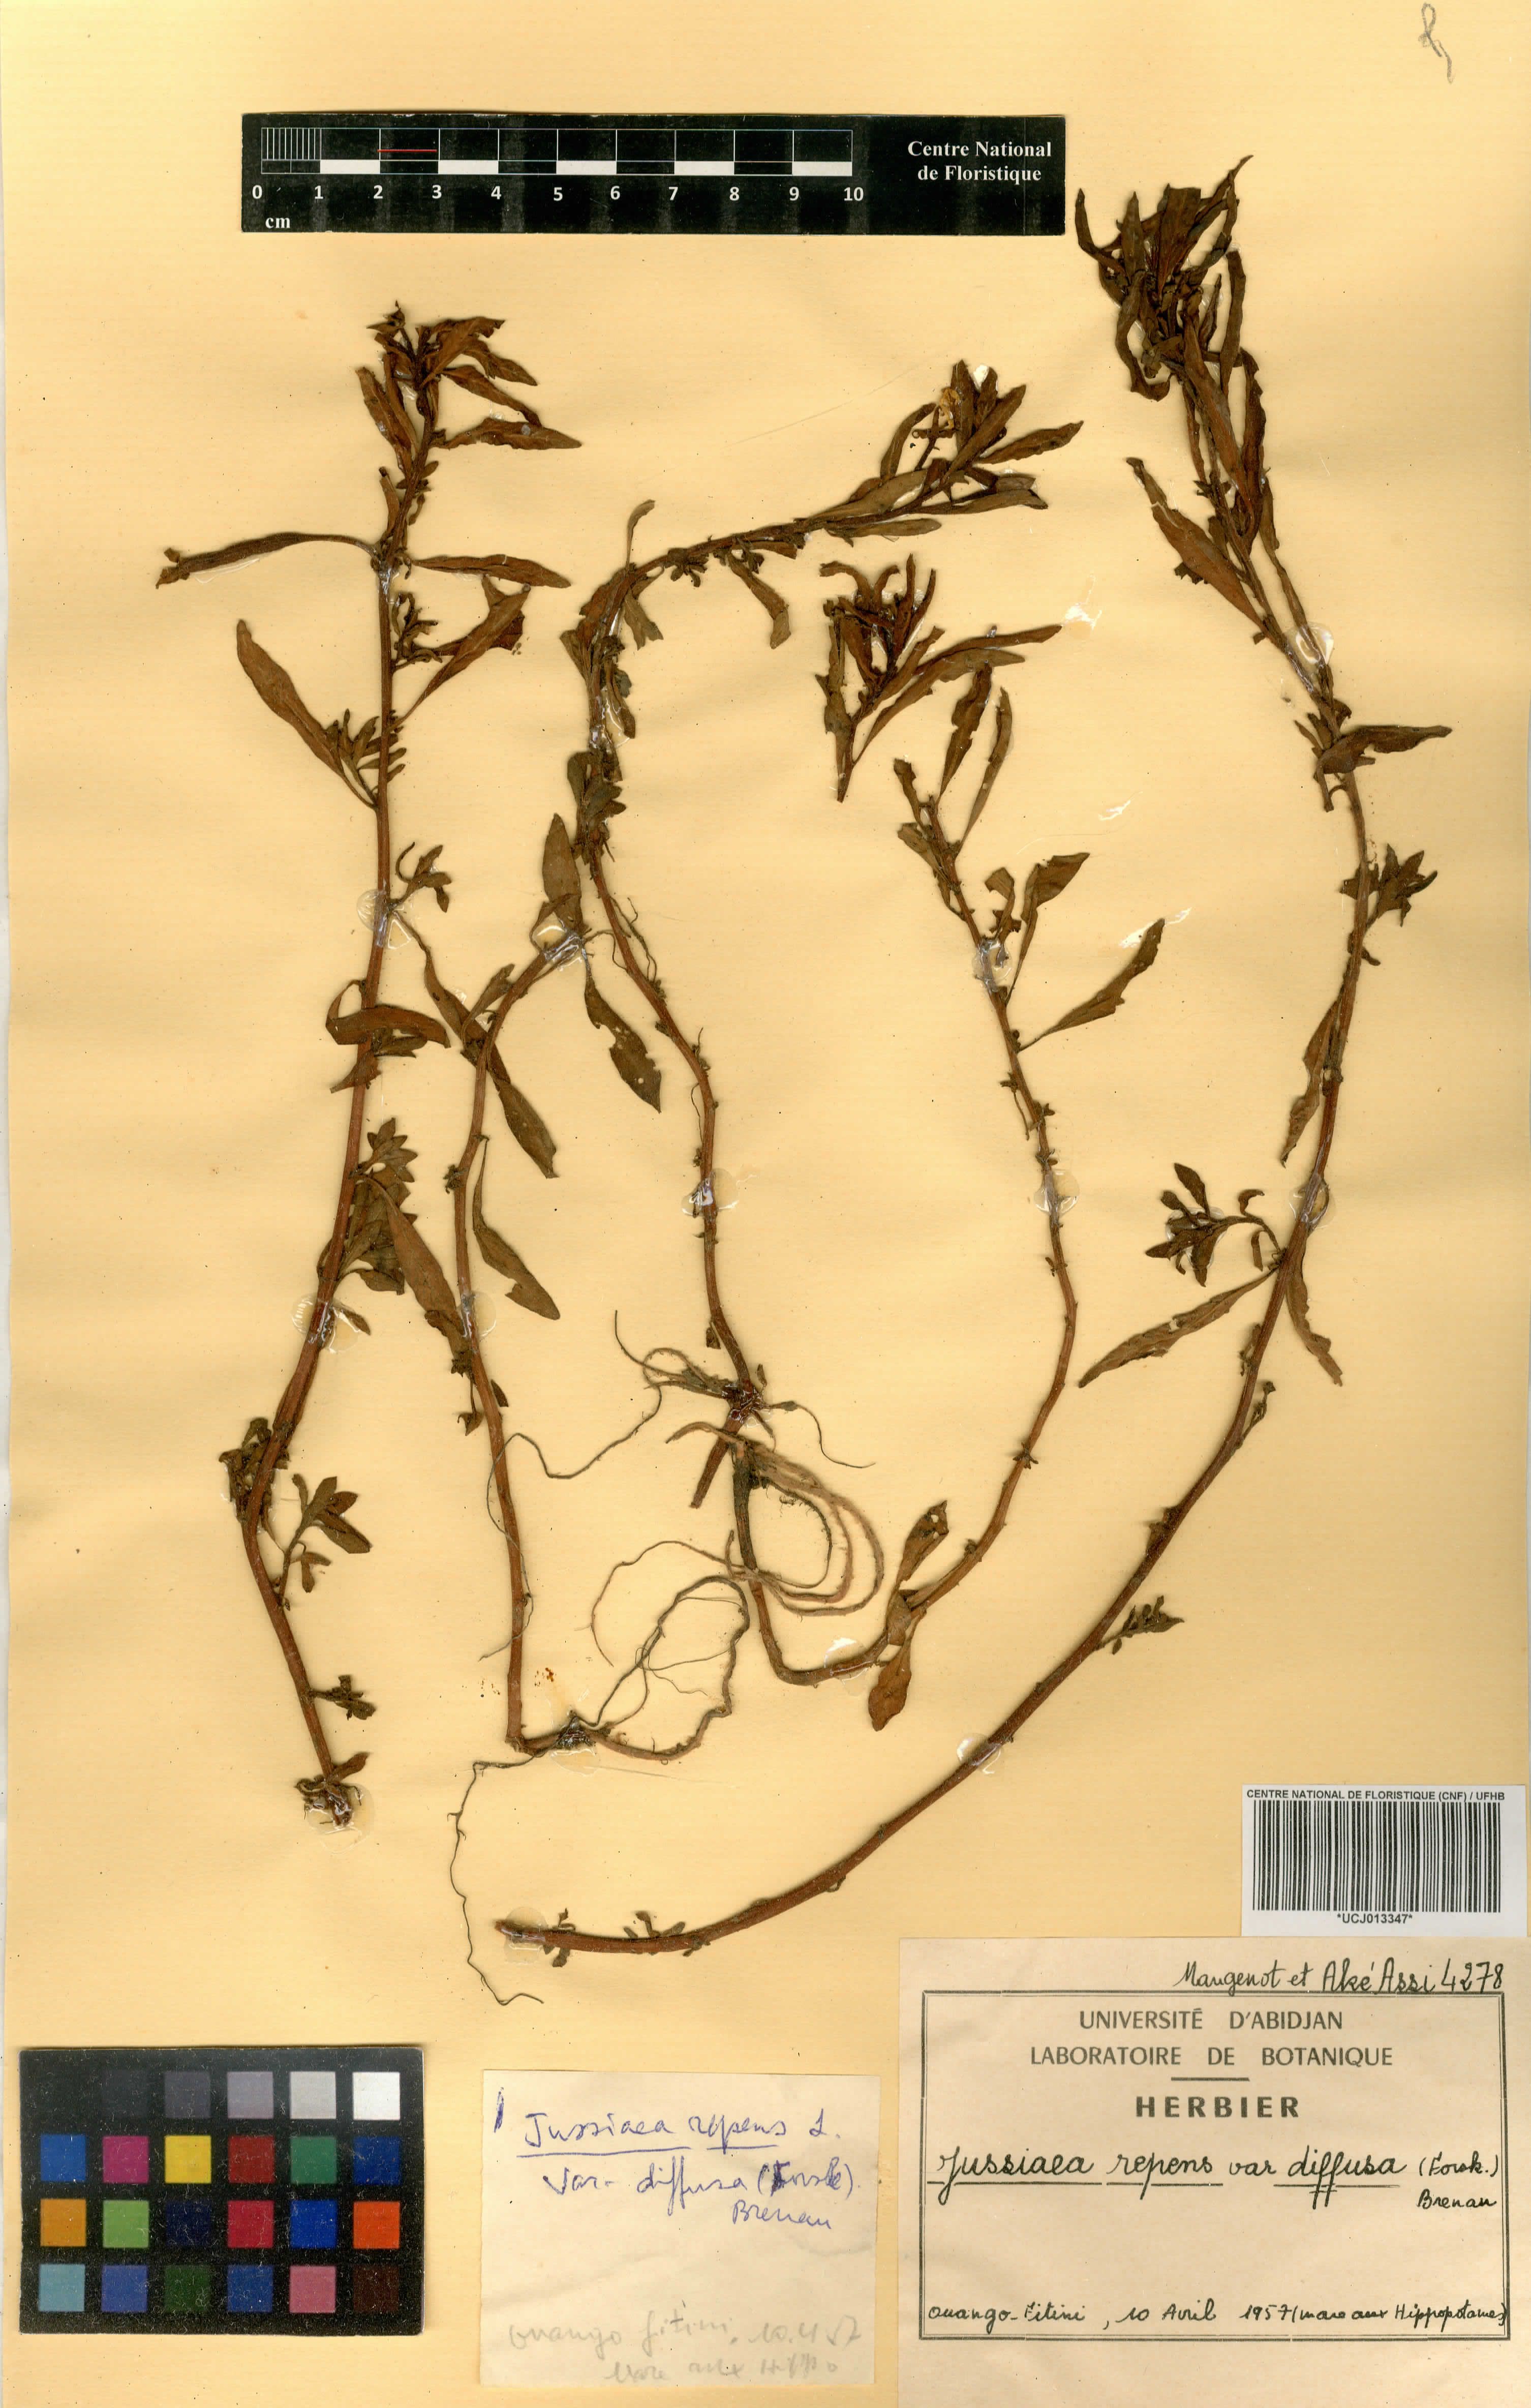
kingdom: Plantae
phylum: Tracheophyta
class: Magnoliopsida
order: Myrtales
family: Onagraceae
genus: Ludwigia
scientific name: Ludwigia adscendens
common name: Creeping water primrose
